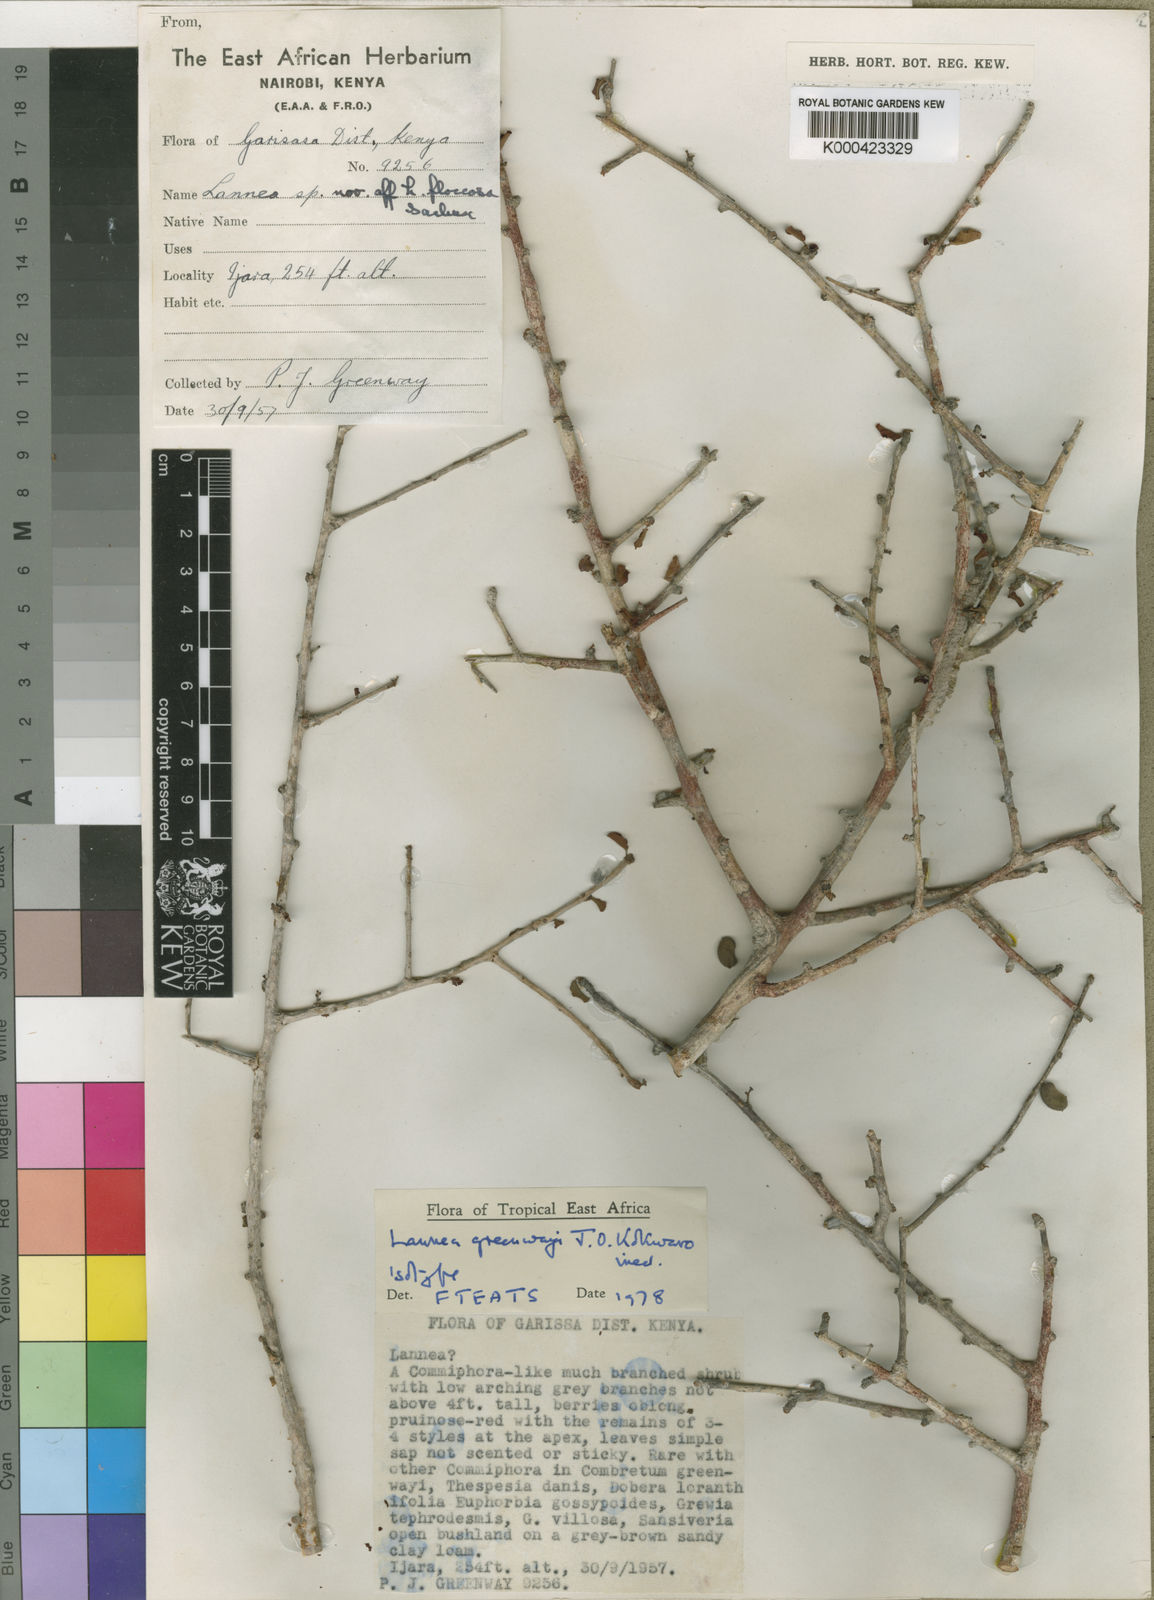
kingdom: Plantae
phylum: Tracheophyta
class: Magnoliopsida
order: Sapindales
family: Anacardiaceae
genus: Lannea
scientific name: Lannea cotoneaster
